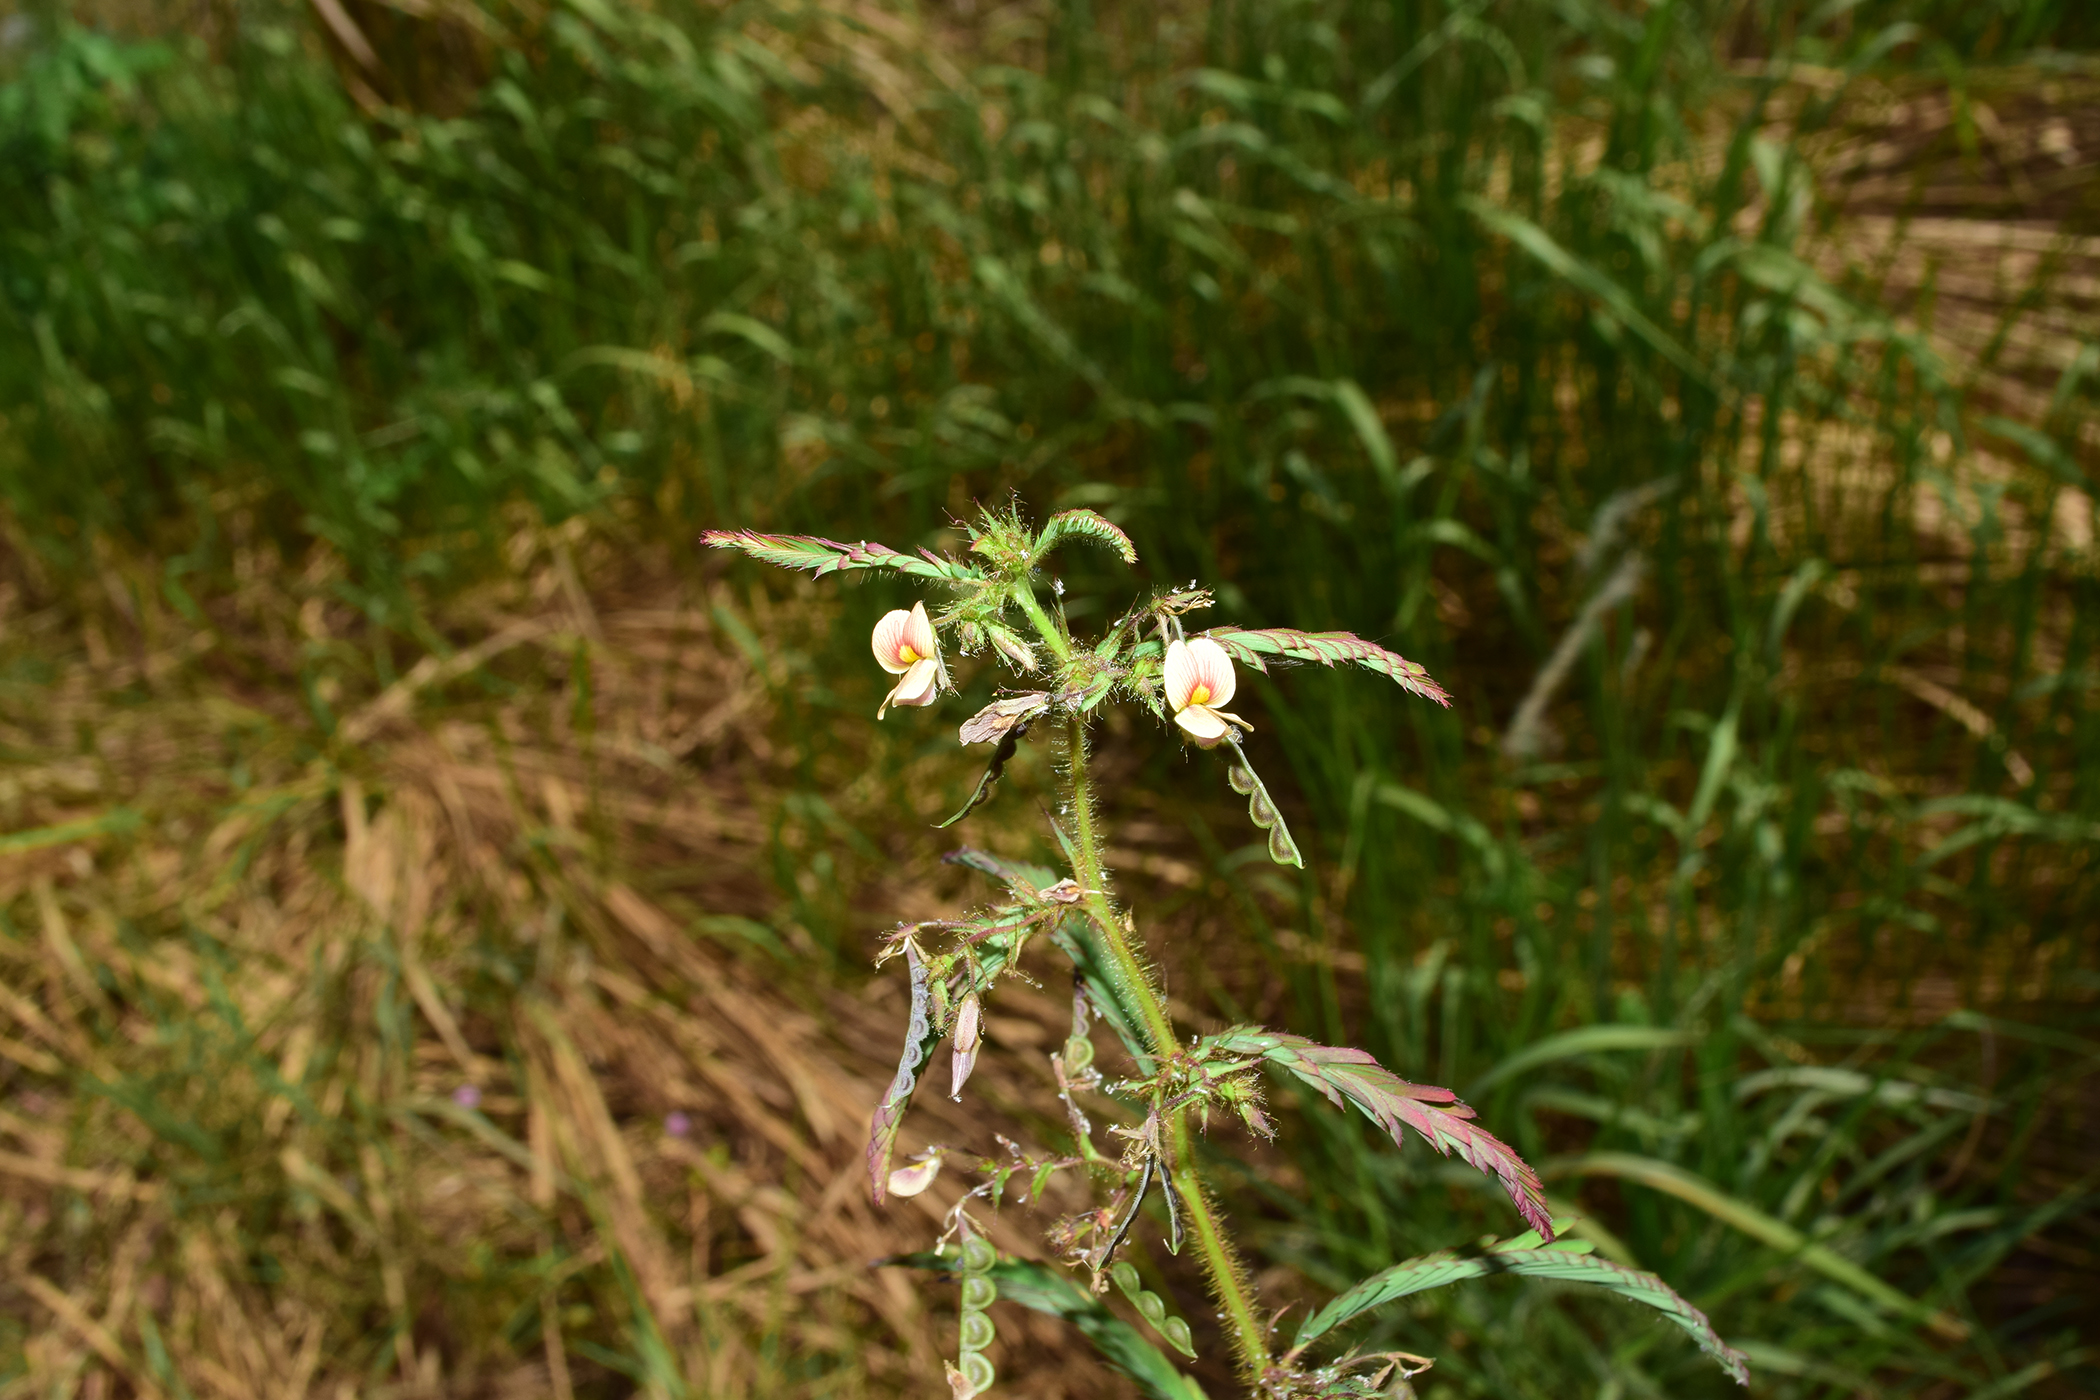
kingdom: Plantae
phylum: Tracheophyta
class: Magnoliopsida
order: Fabales
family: Fabaceae
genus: Aeschynomene
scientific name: Aeschynomene americana
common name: Joint-vetch
